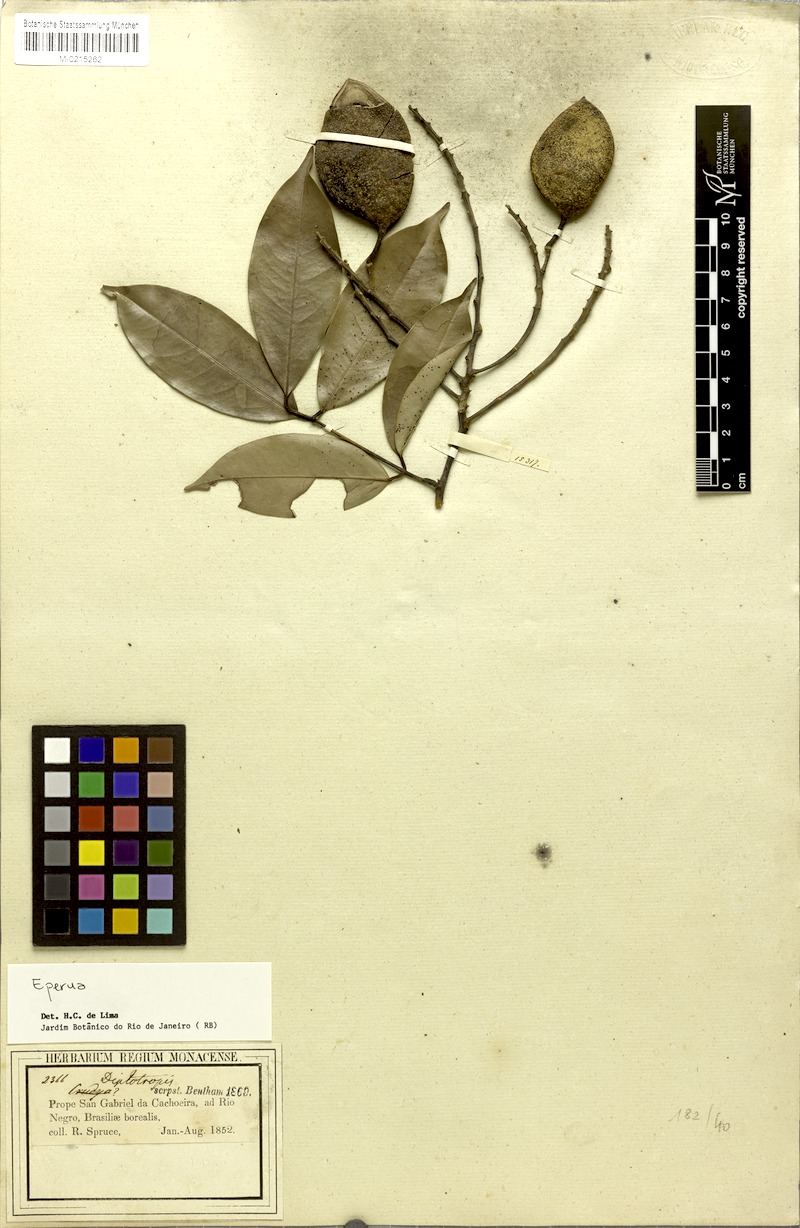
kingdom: Plantae
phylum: Tracheophyta
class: Magnoliopsida
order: Fabales
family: Fabaceae
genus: Eperua
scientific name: Eperua
